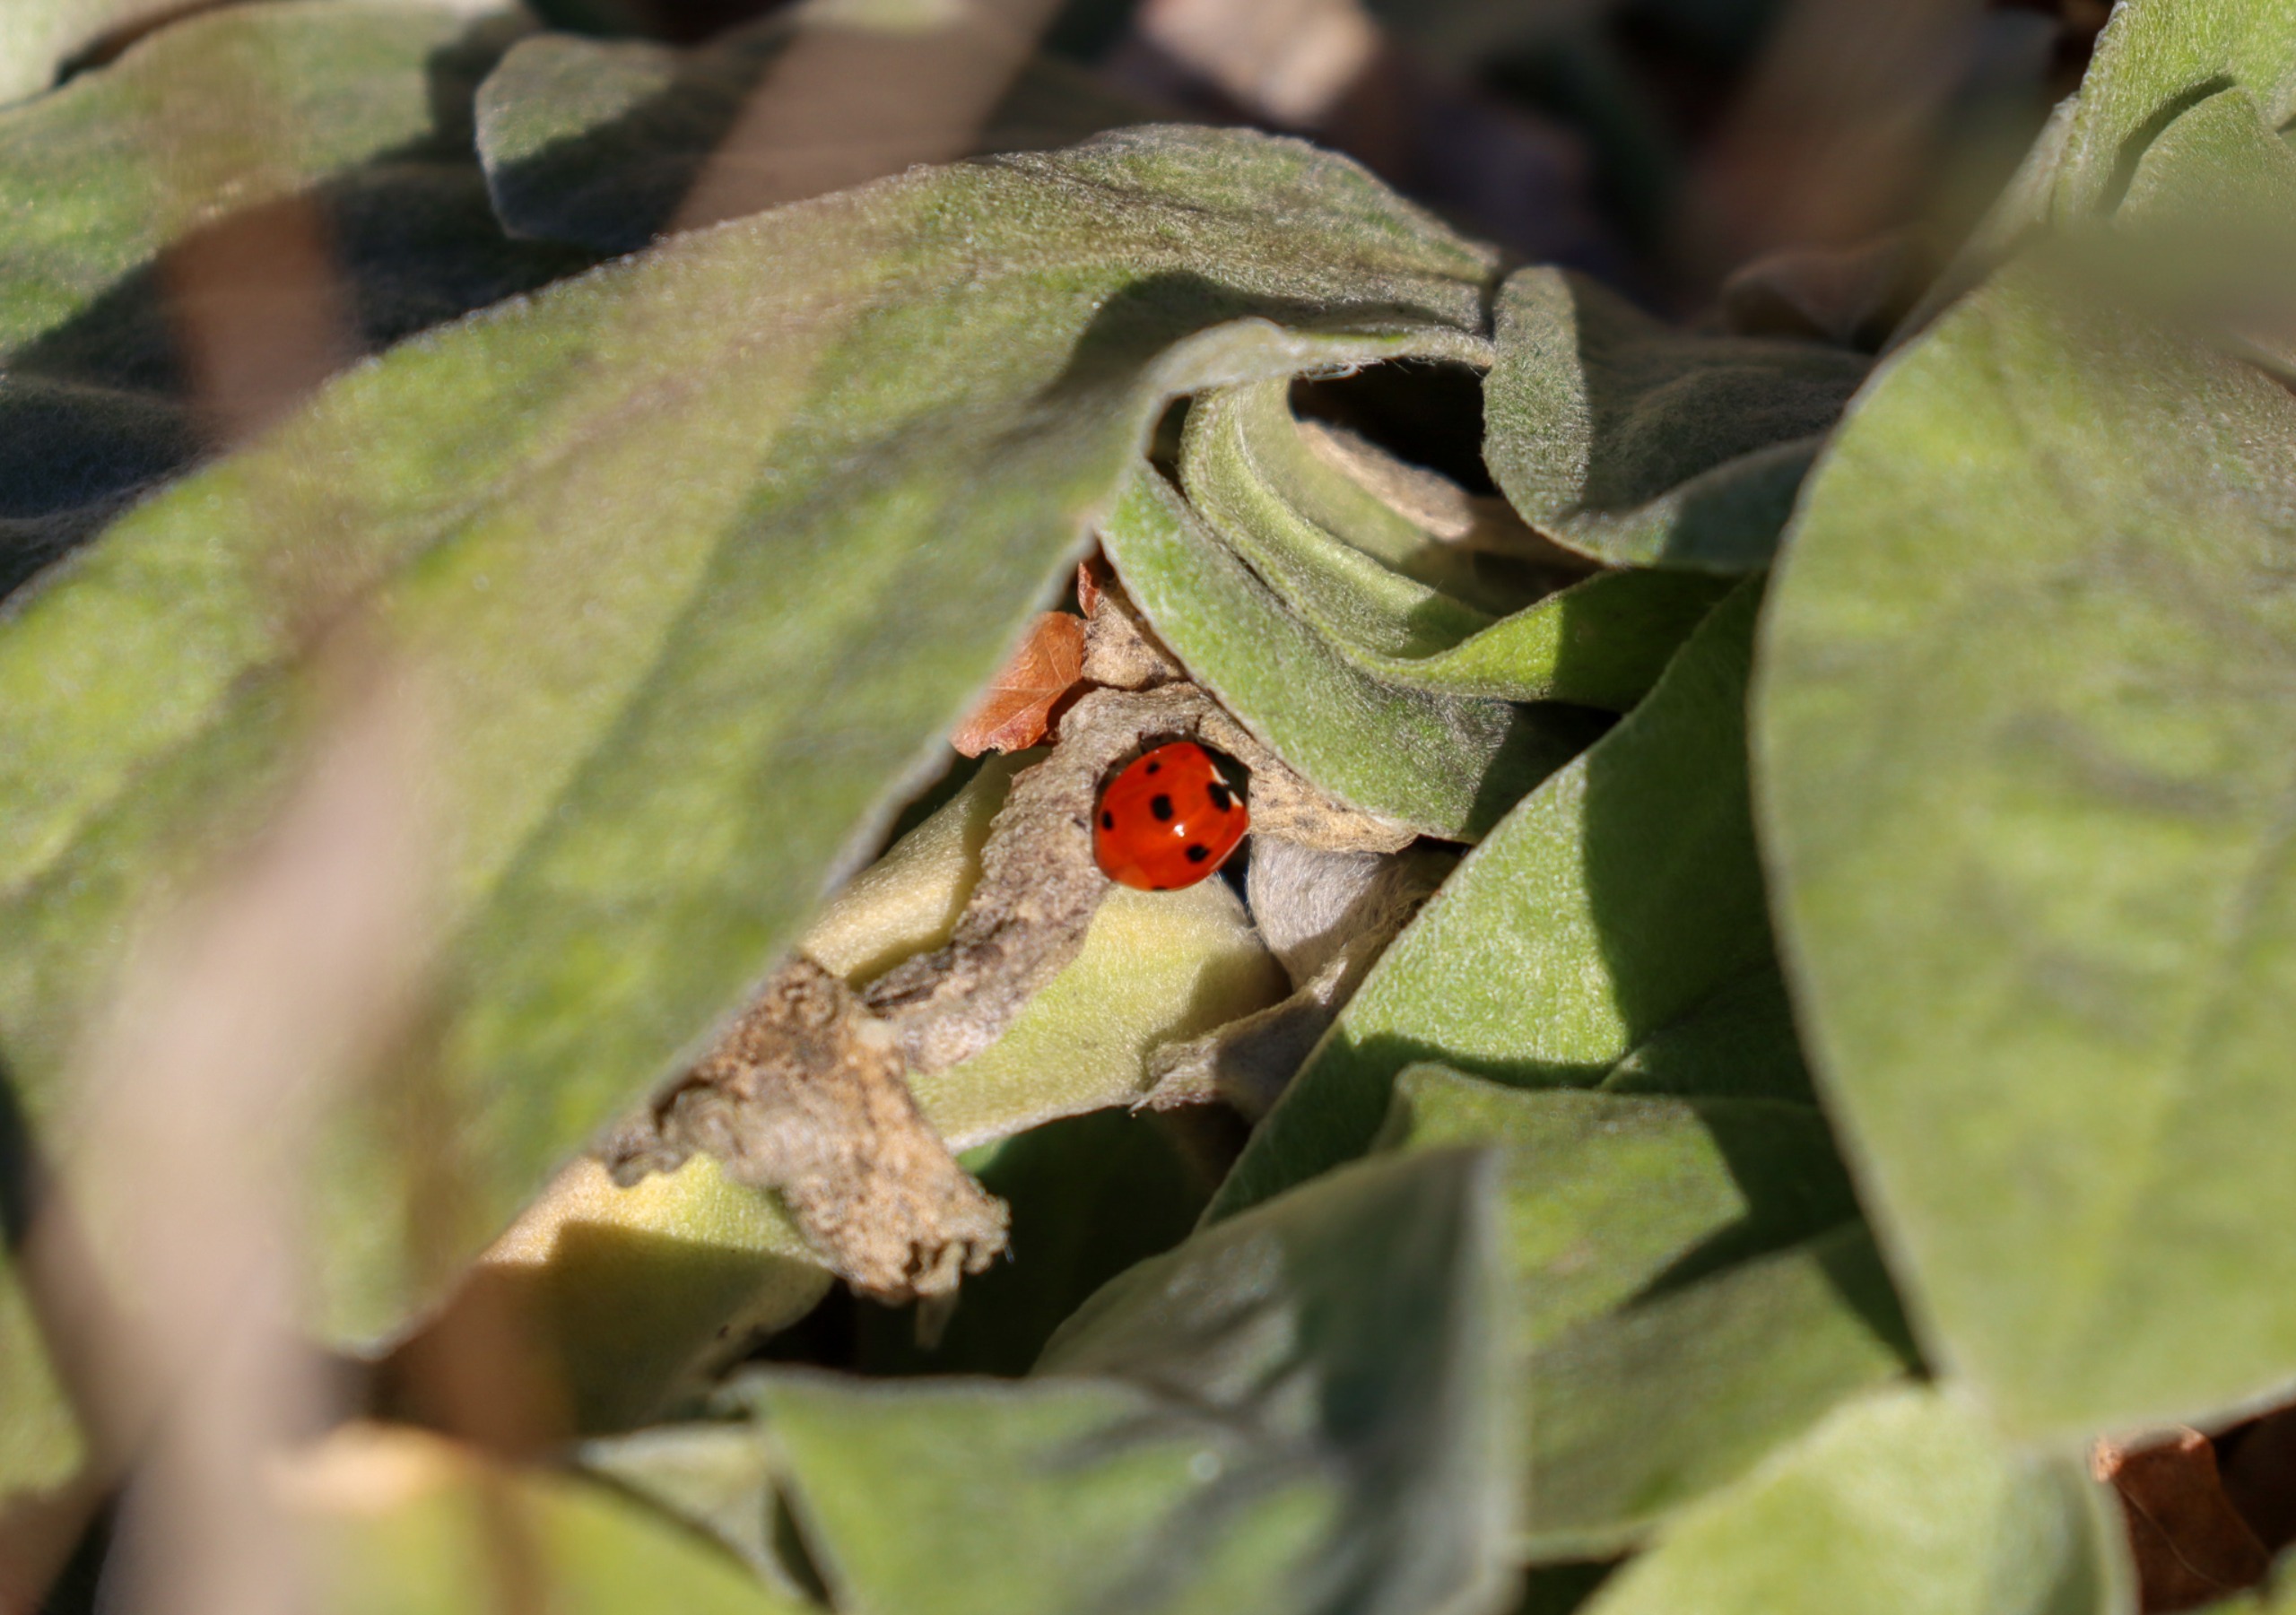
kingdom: Animalia
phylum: Arthropoda
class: Insecta
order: Coleoptera
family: Coccinellidae
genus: Coccinella
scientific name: Coccinella septempunctata
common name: Syvplettet mariehøne
